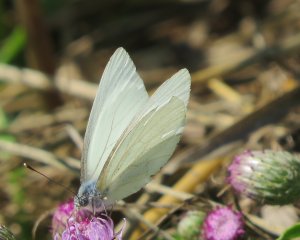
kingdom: Animalia
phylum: Arthropoda
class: Insecta
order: Lepidoptera
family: Pieridae
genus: Pieris
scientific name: Pieris oleracea
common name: Mustard White
